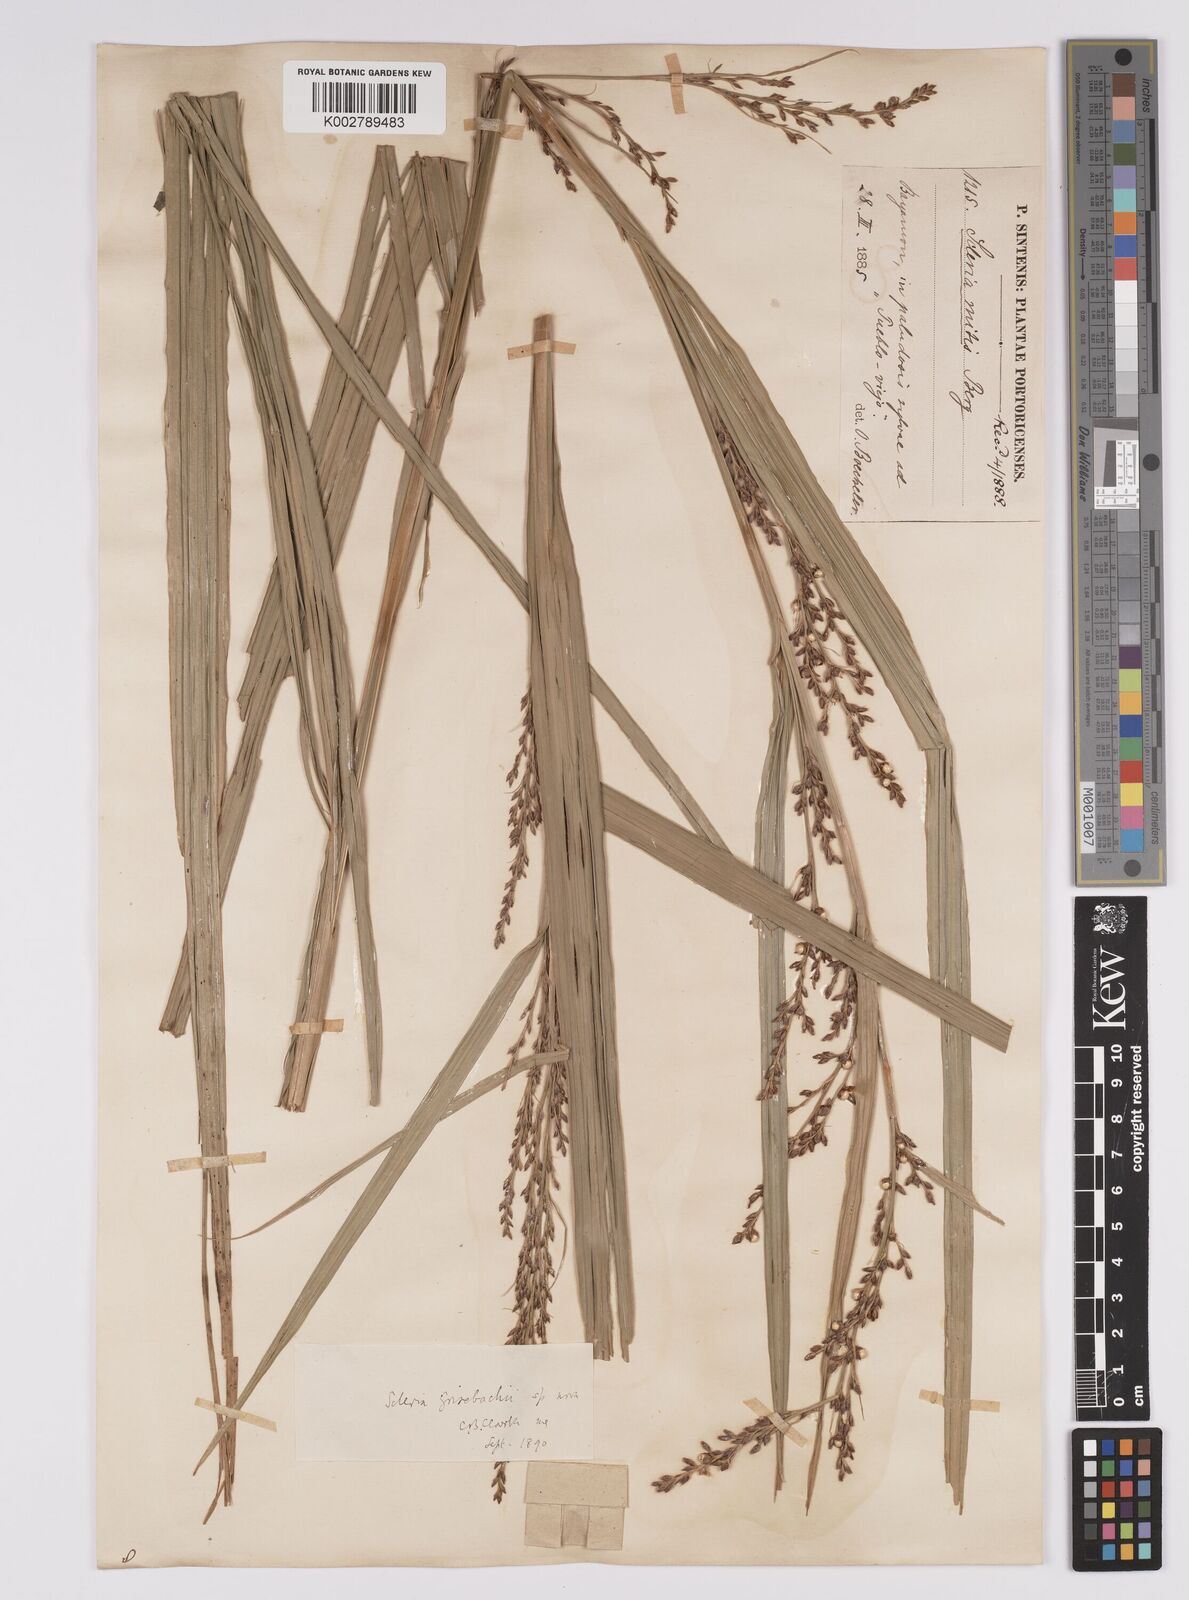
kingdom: Plantae
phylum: Tracheophyta
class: Liliopsida
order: Poales
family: Cyperaceae
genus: Scleria
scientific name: Scleria eggersiana
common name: Eggers' nutrush
